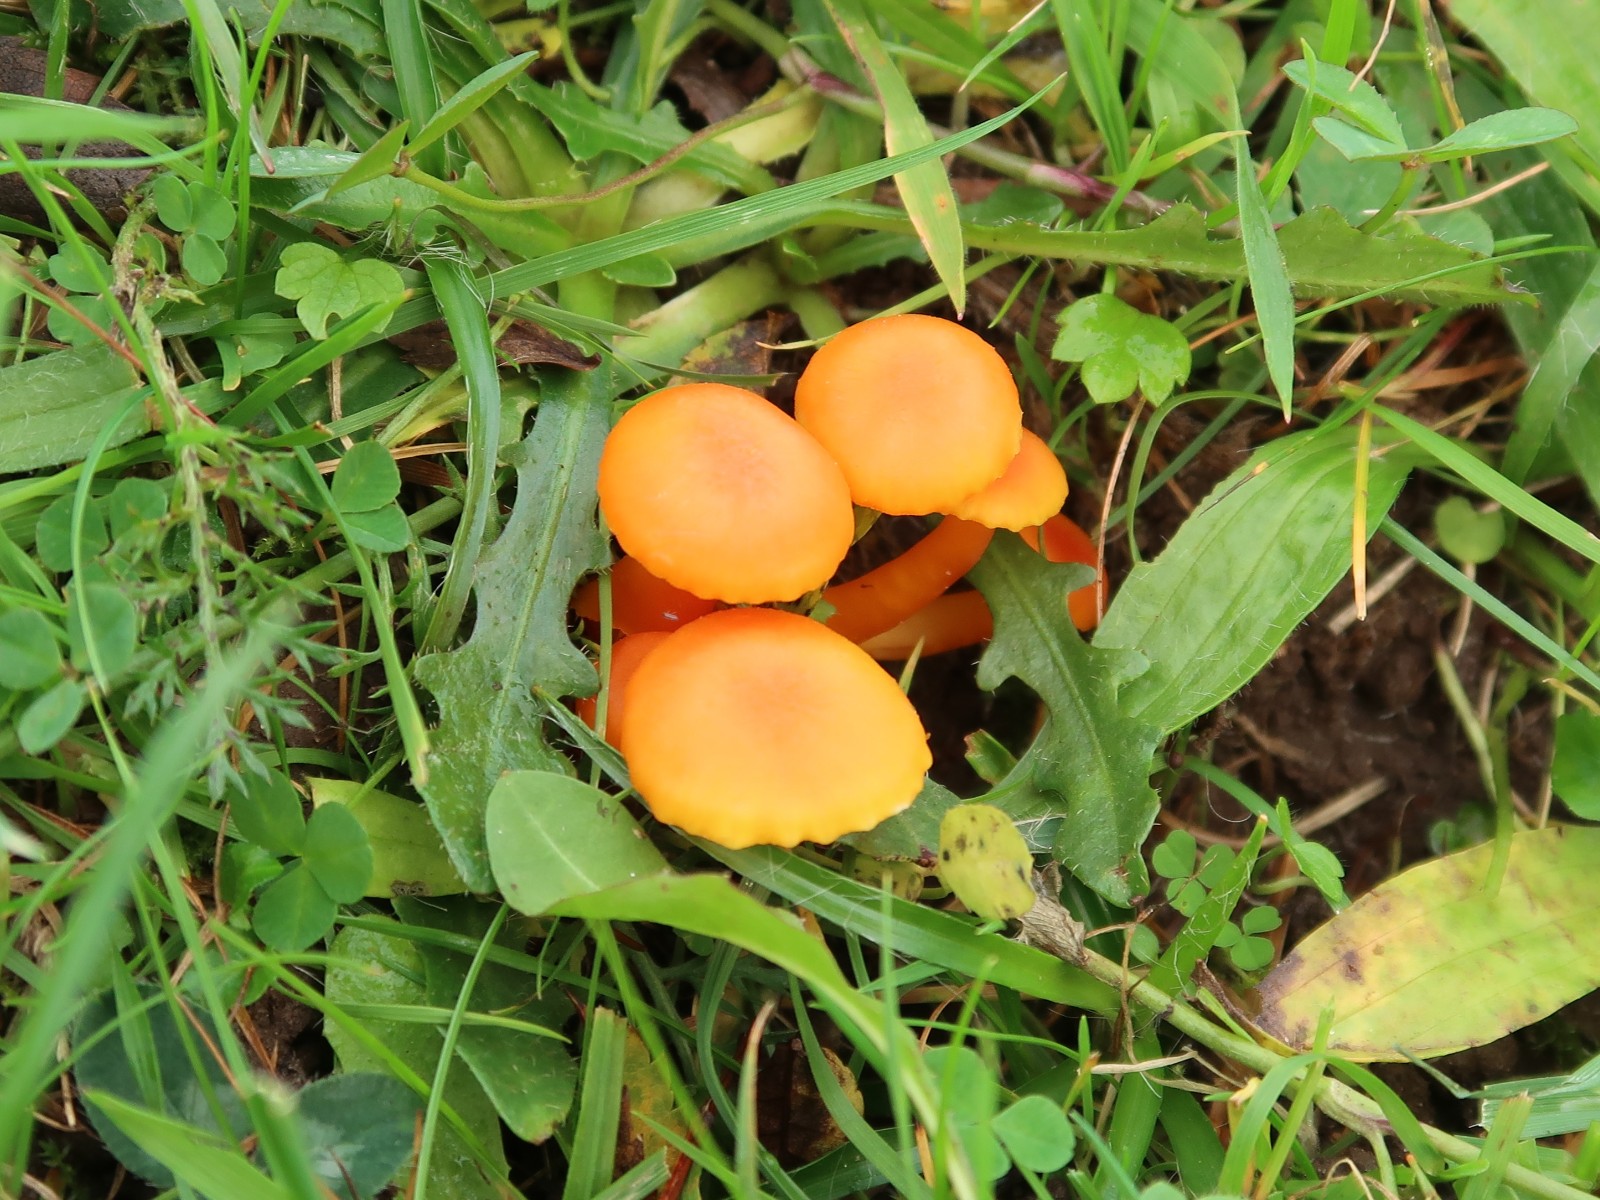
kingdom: Fungi
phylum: Basidiomycota
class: Agaricomycetes
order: Agaricales
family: Hygrophoraceae
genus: Hygrocybe
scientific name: Hygrocybe reidii
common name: honning-vokshat
